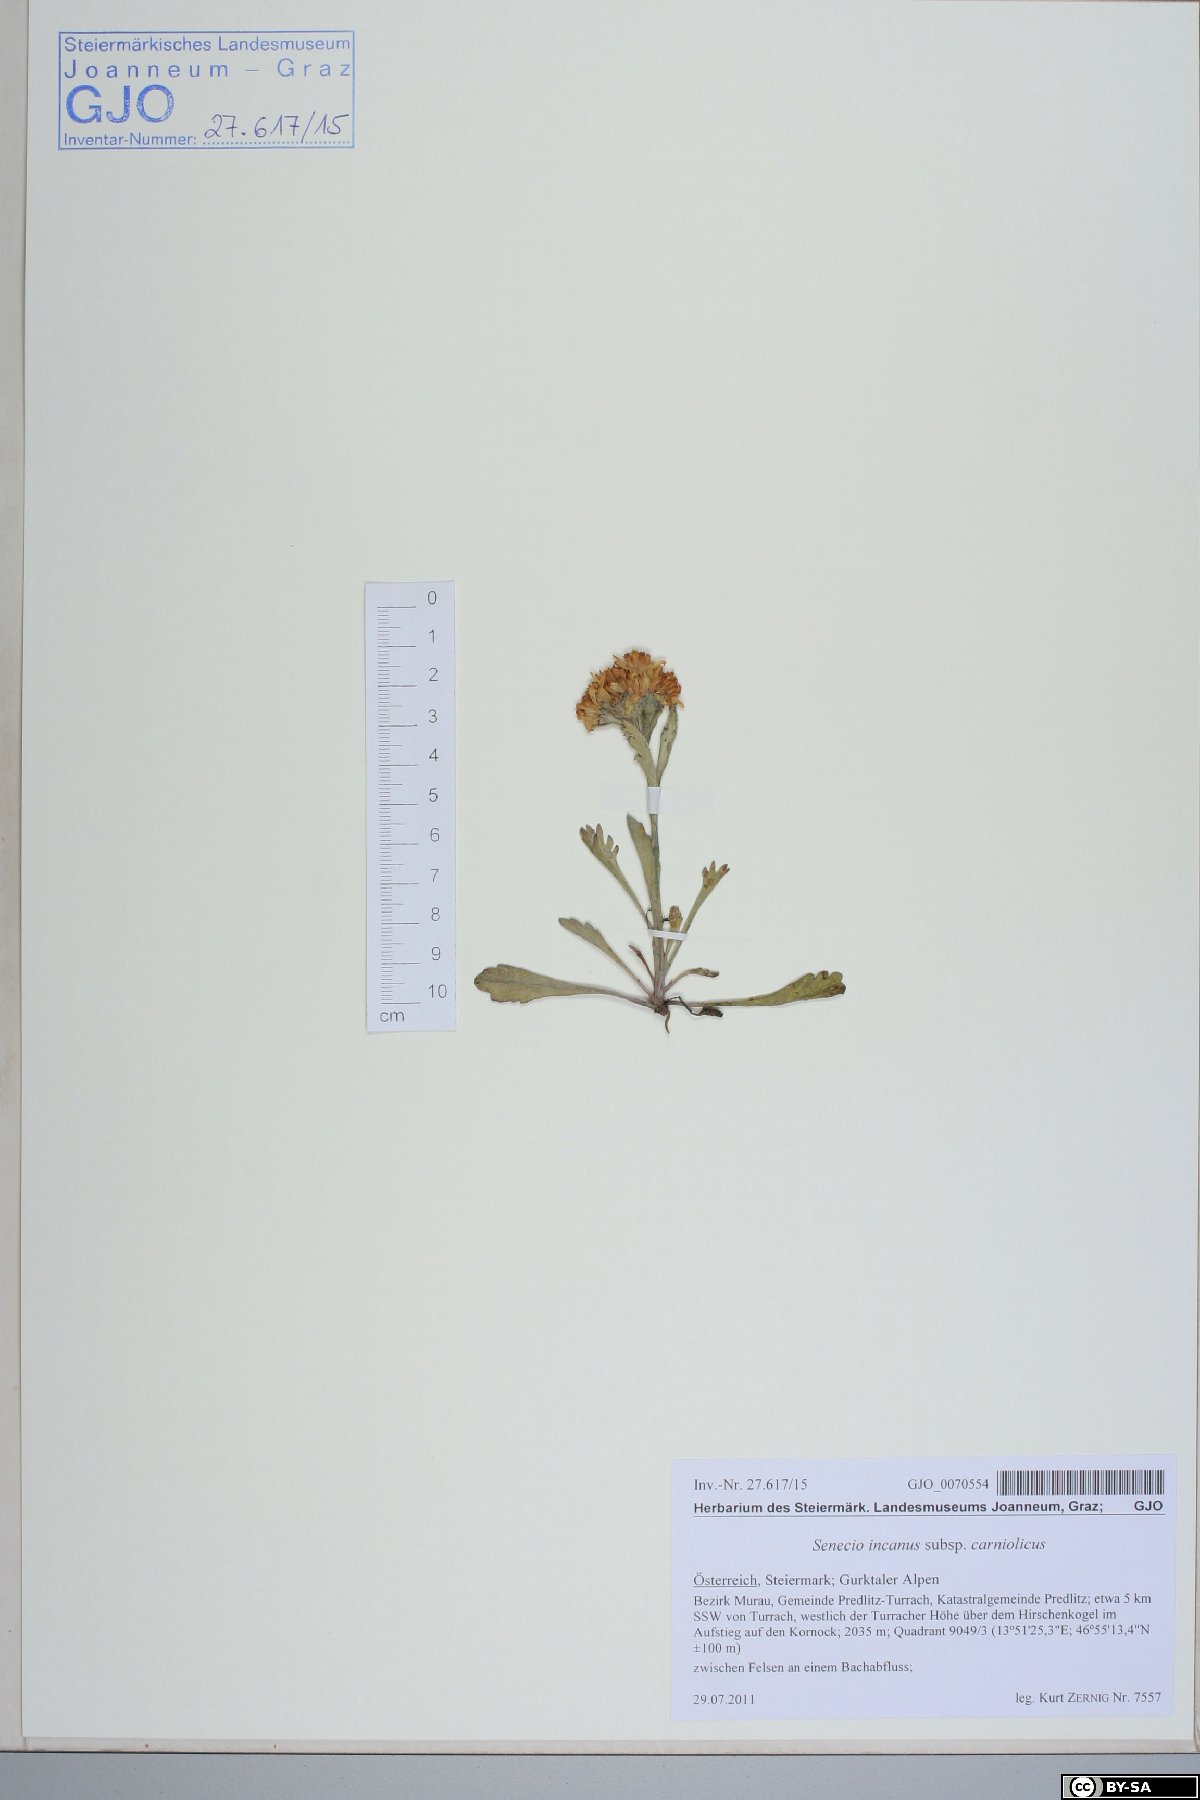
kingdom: Plantae
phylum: Tracheophyta
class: Magnoliopsida
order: Asterales
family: Asteraceae
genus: Jacobaea
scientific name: Jacobaea carniolica
